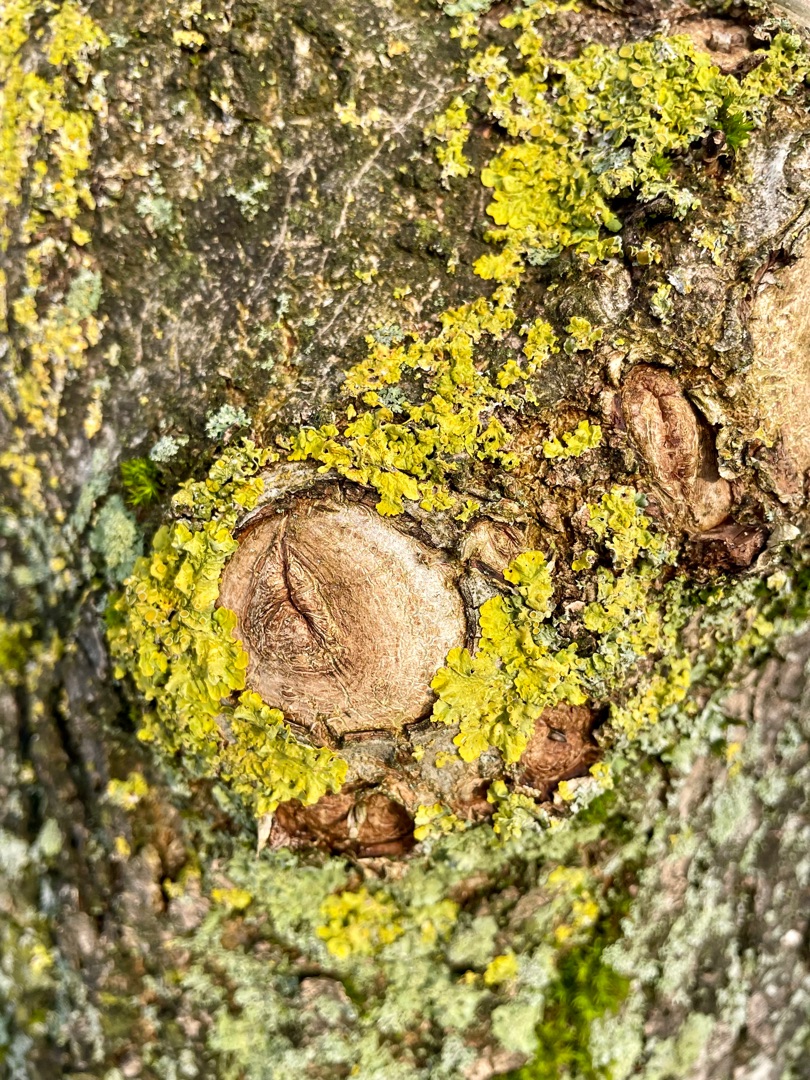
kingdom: Fungi
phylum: Ascomycota
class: Lecanoromycetes
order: Teloschistales
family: Teloschistaceae
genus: Xanthoria
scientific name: Xanthoria parietina
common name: Almindelig væggelav
